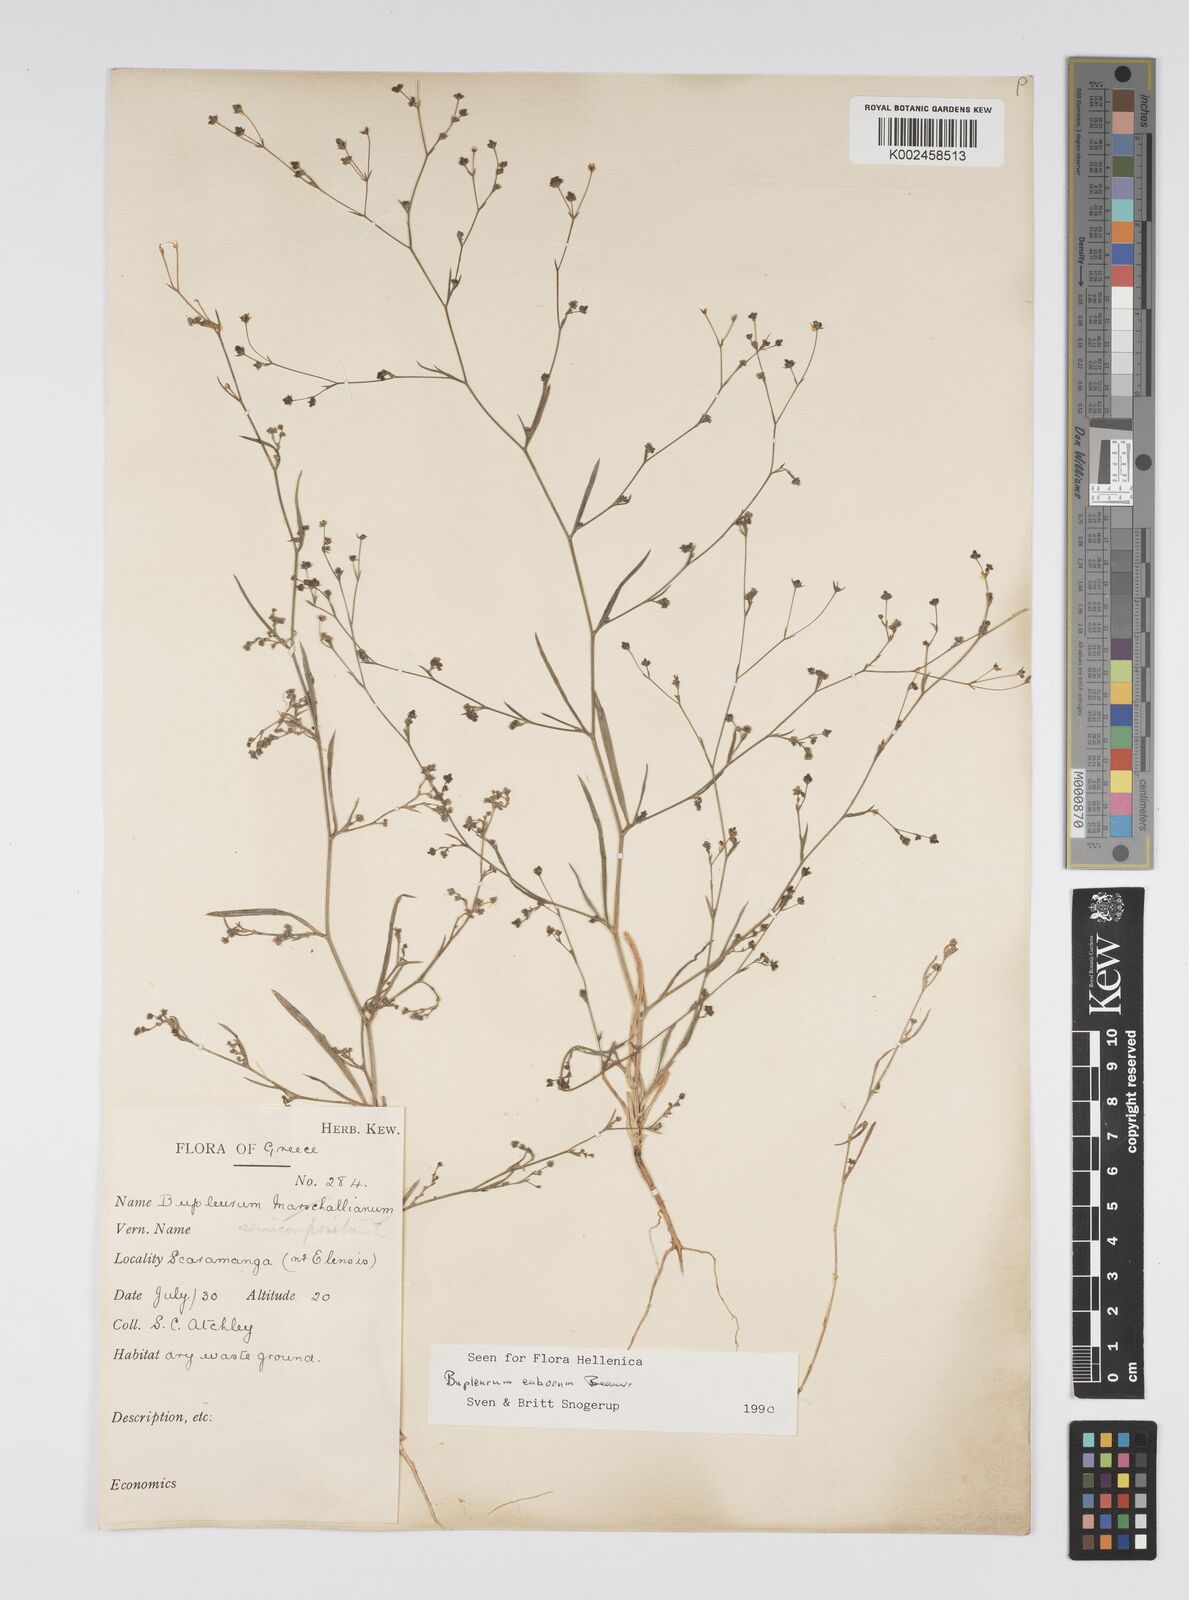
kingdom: Plantae
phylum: Tracheophyta
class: Magnoliopsida
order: Apiales
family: Apiaceae
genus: Bupleurum
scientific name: Bupleurum tenuissimum
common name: Slender hare's-ear
